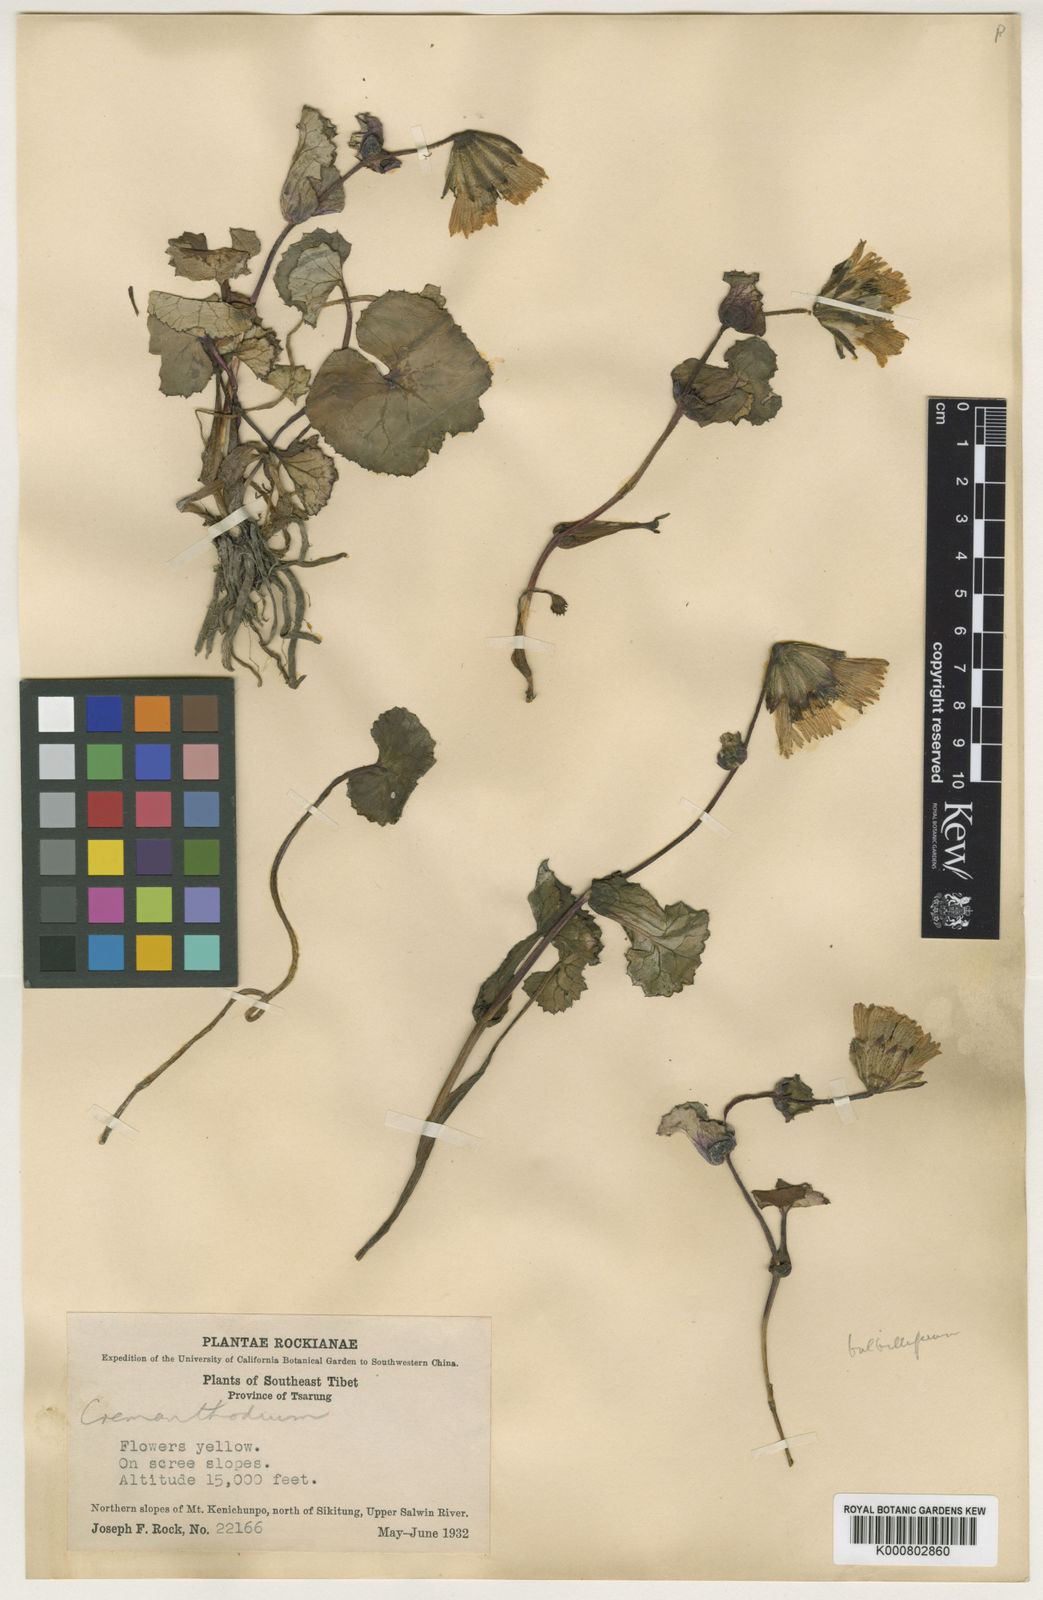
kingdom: Plantae
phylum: Tracheophyta
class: Magnoliopsida
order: Asterales
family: Asteraceae
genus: Cremanthodium
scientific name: Cremanthodium bulbilliferum
